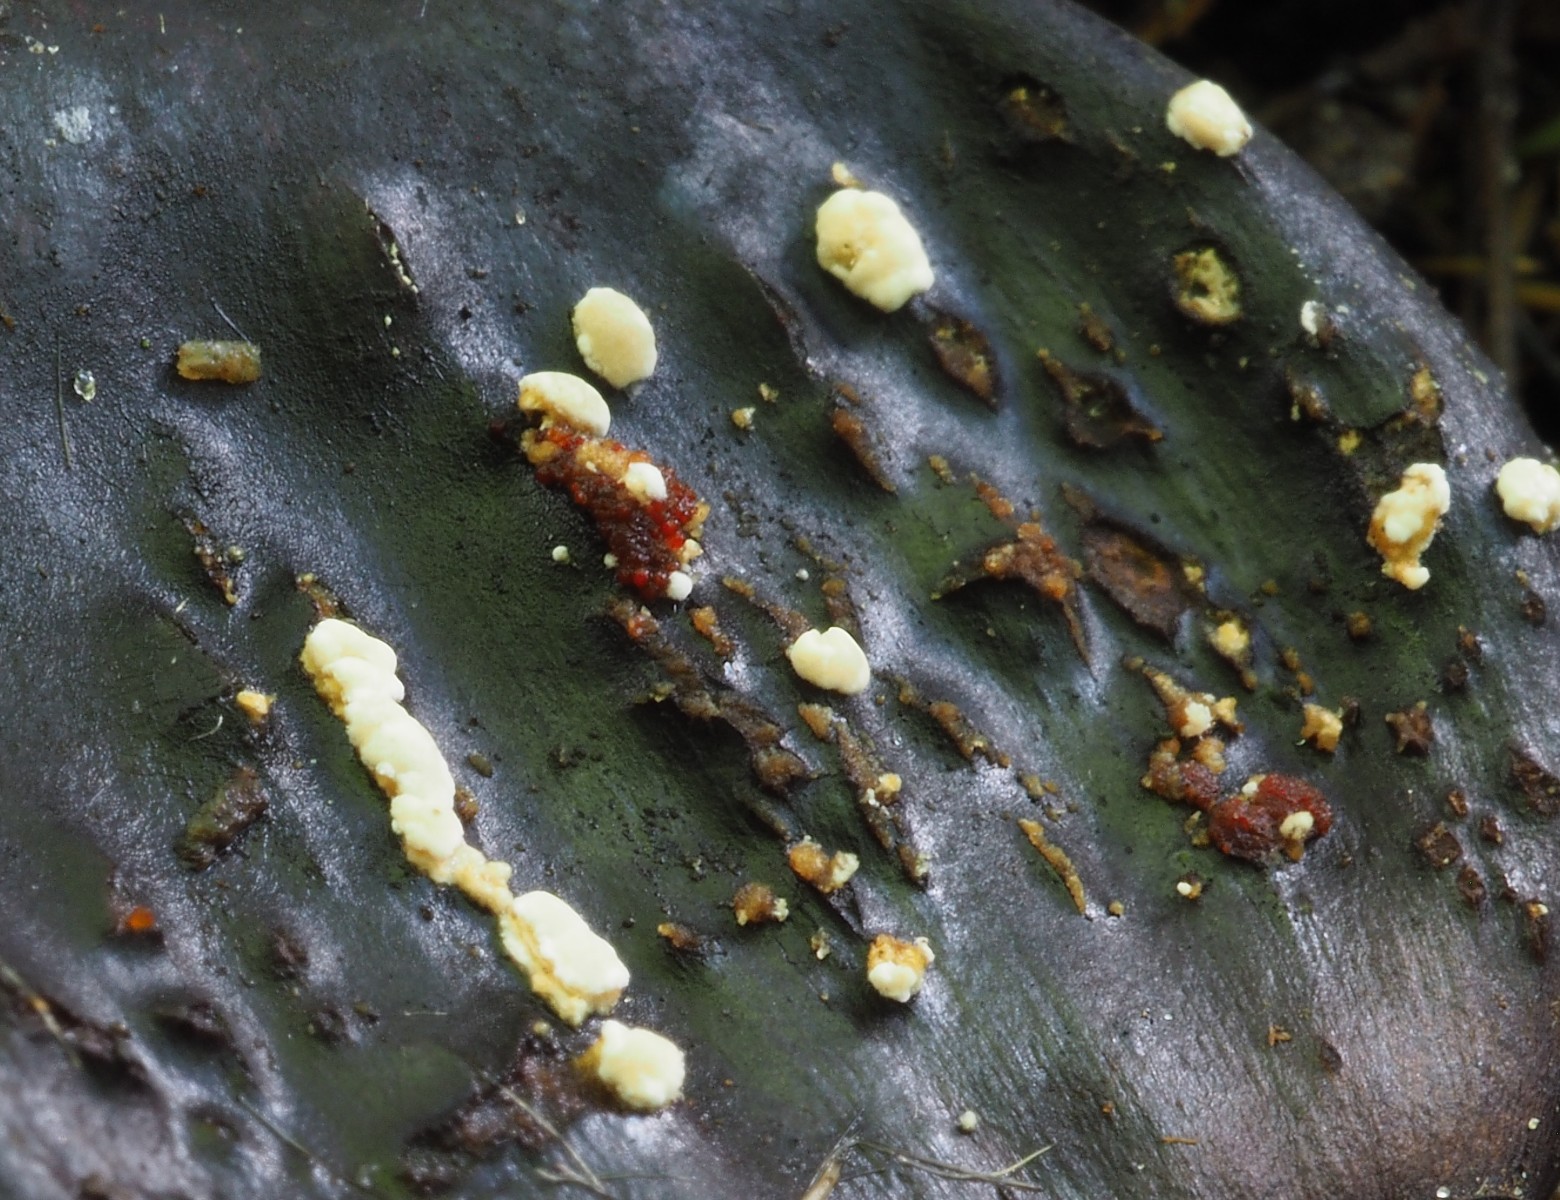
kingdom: Fungi
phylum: Ascomycota
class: Sordariomycetes
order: Hypocreales
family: Nectriaceae
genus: Nectria
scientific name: Nectria cinnabarina
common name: almindelig cinnobersvamp
